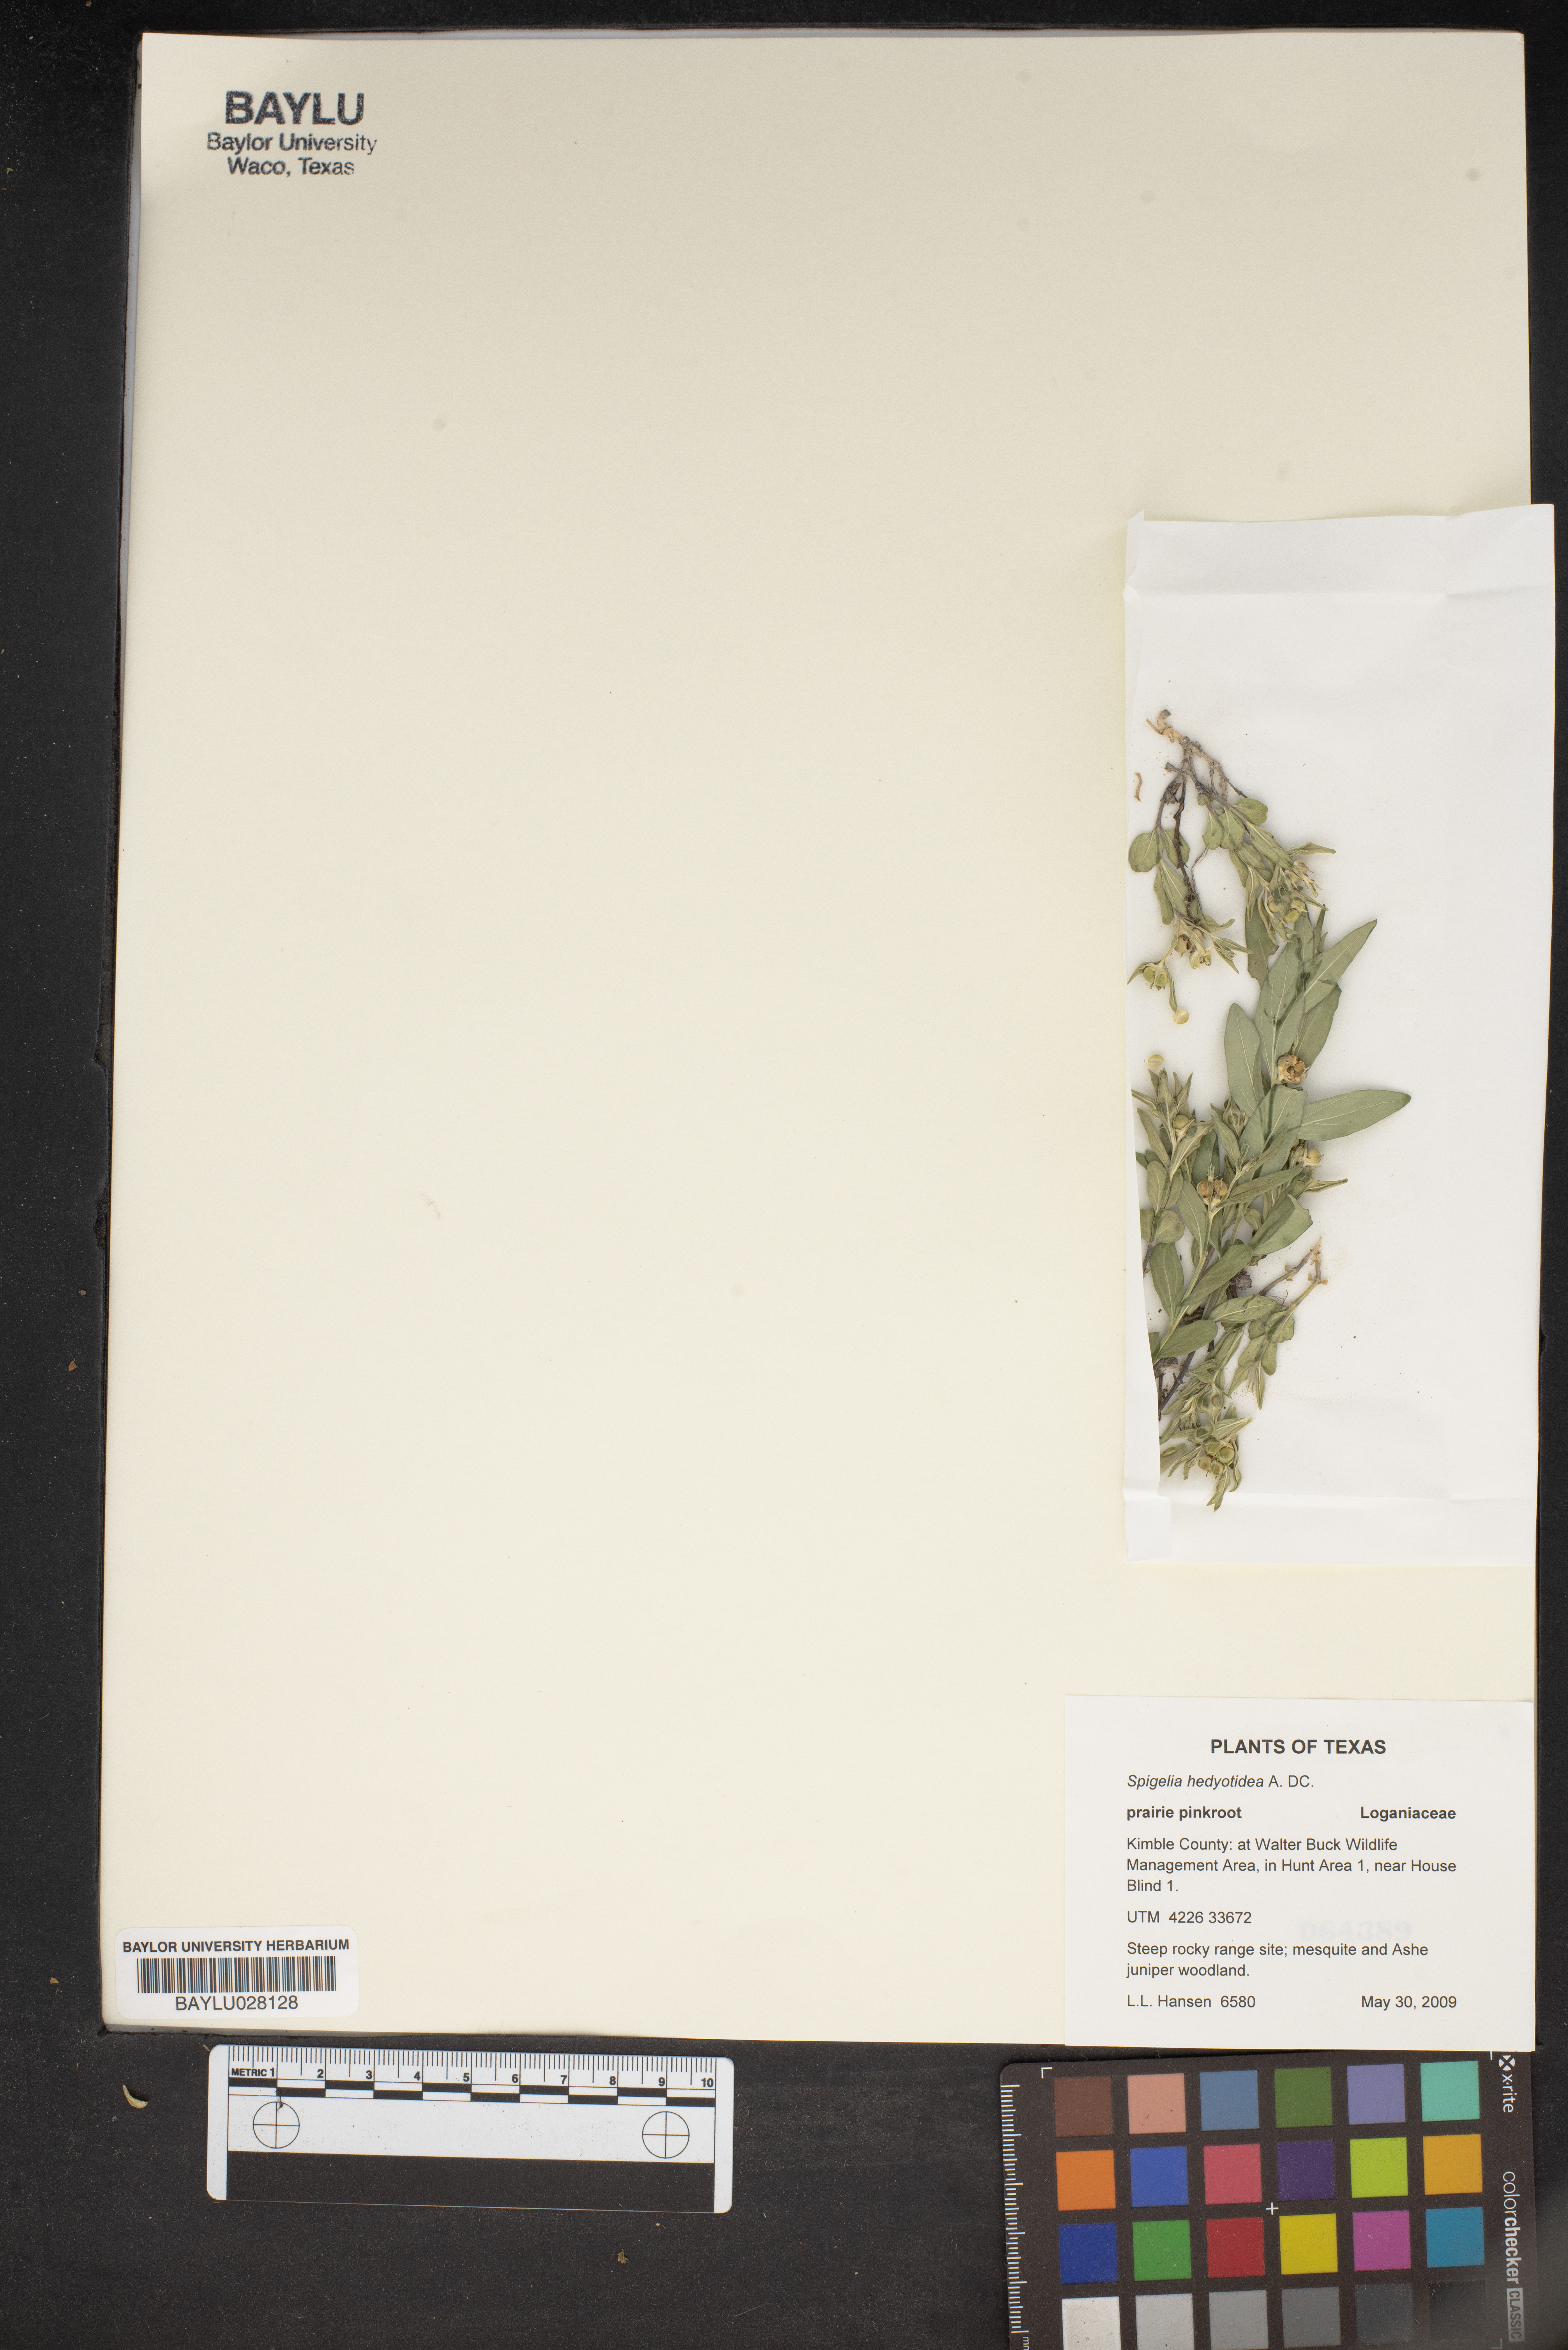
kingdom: Plantae
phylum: Tracheophyta
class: Magnoliopsida
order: Gentianales
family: Loganiaceae
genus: Spigelia
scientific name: Spigelia hedyotidea
